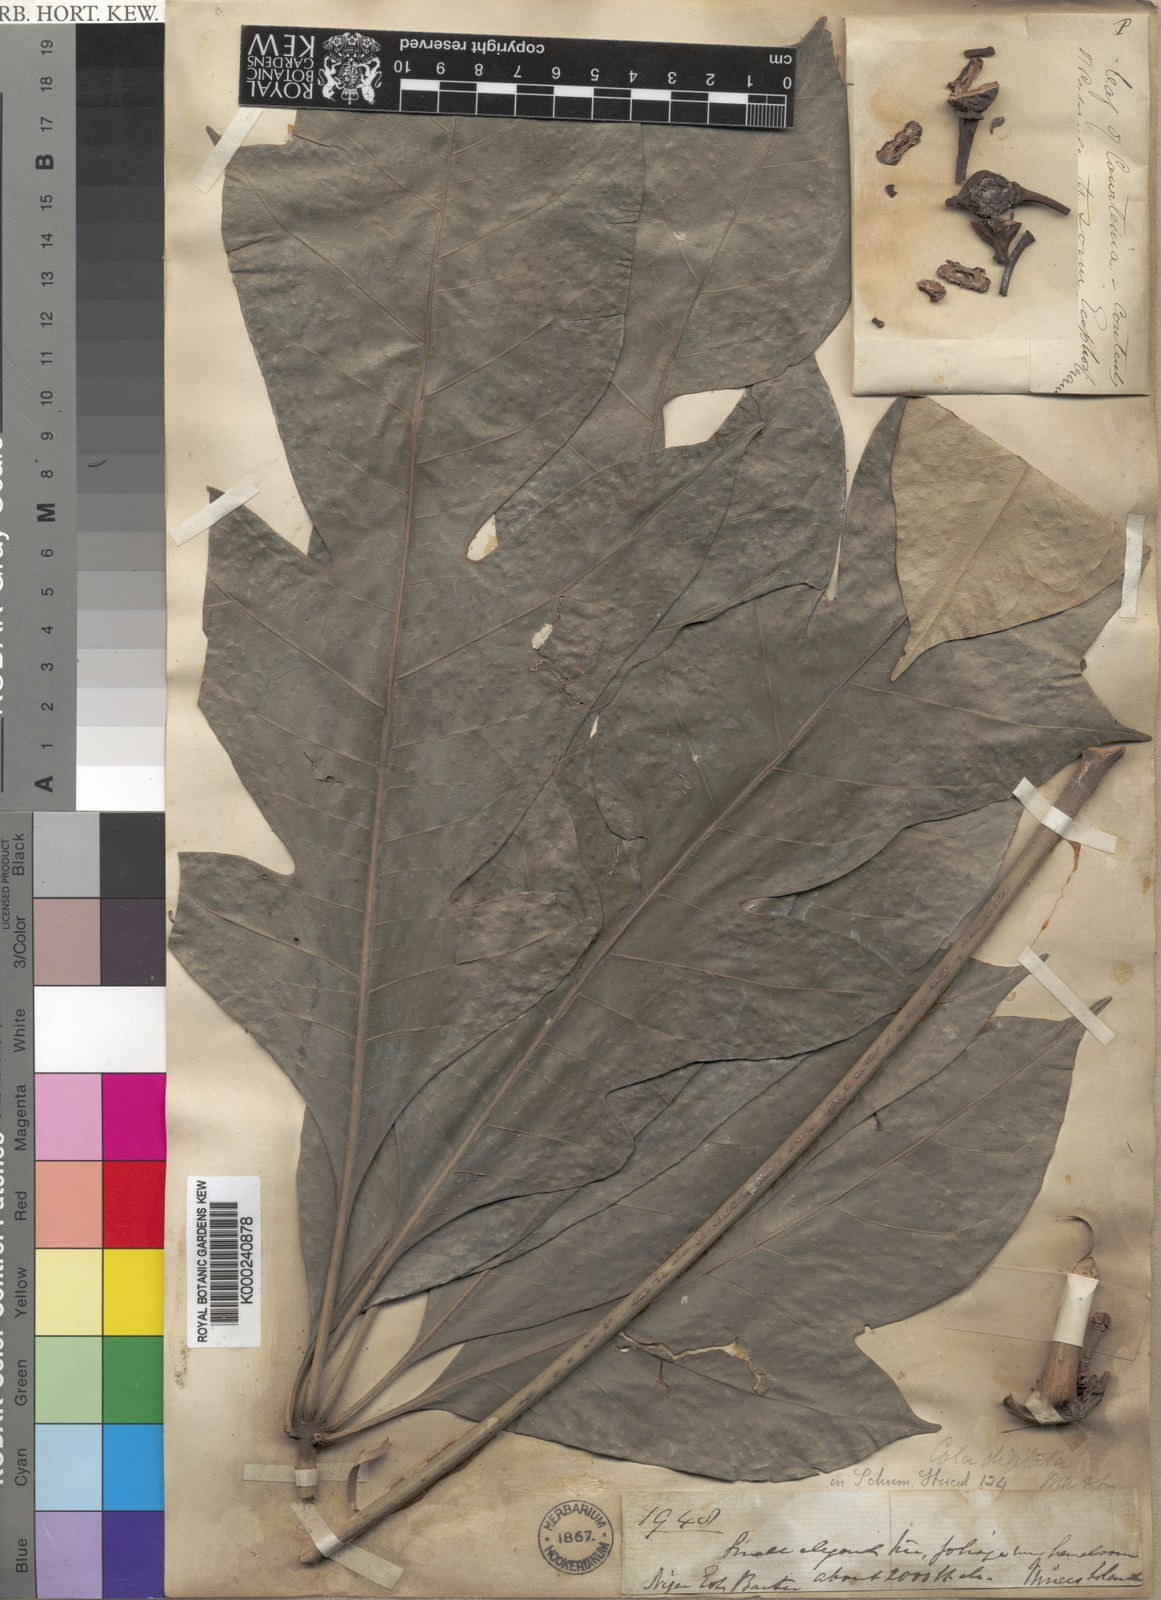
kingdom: Plantae
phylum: Tracheophyta
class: Magnoliopsida
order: Malvales
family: Malvaceae
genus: Cola
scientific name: Cola digitata
